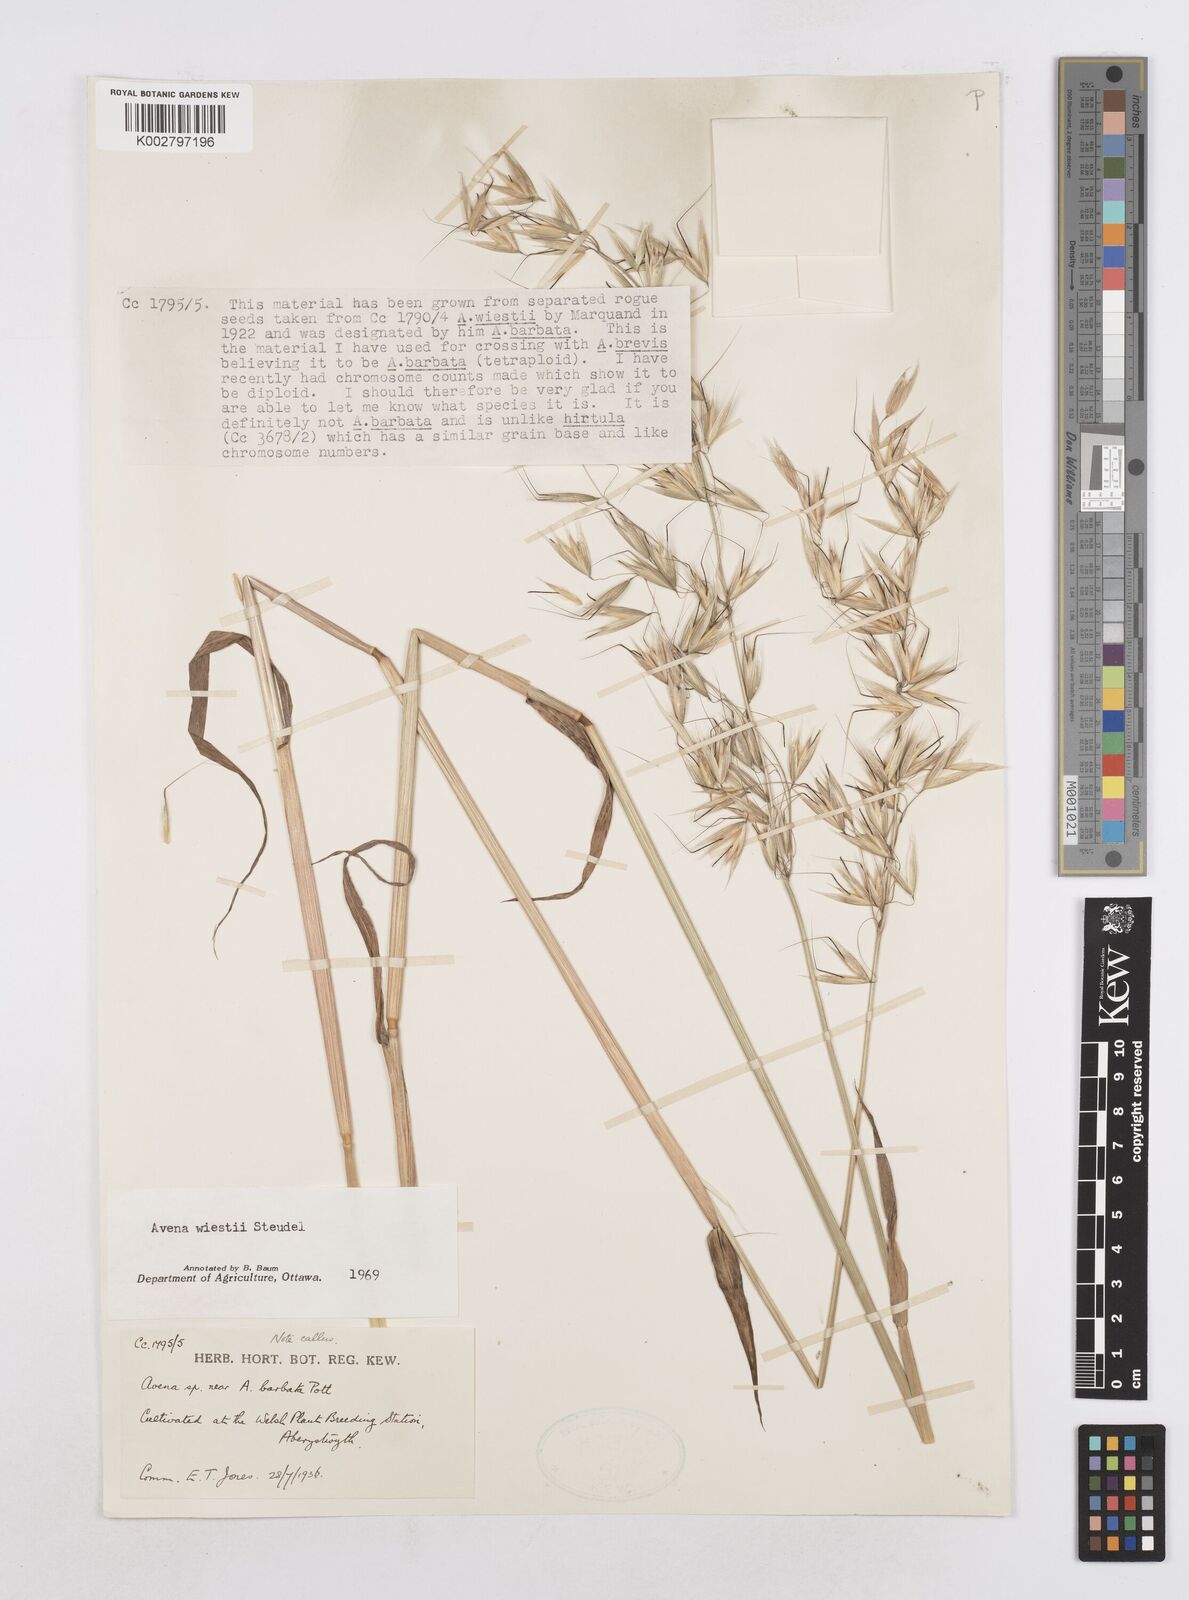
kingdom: Plantae
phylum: Tracheophyta
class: Liliopsida
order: Poales
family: Poaceae
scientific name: Poaceae
